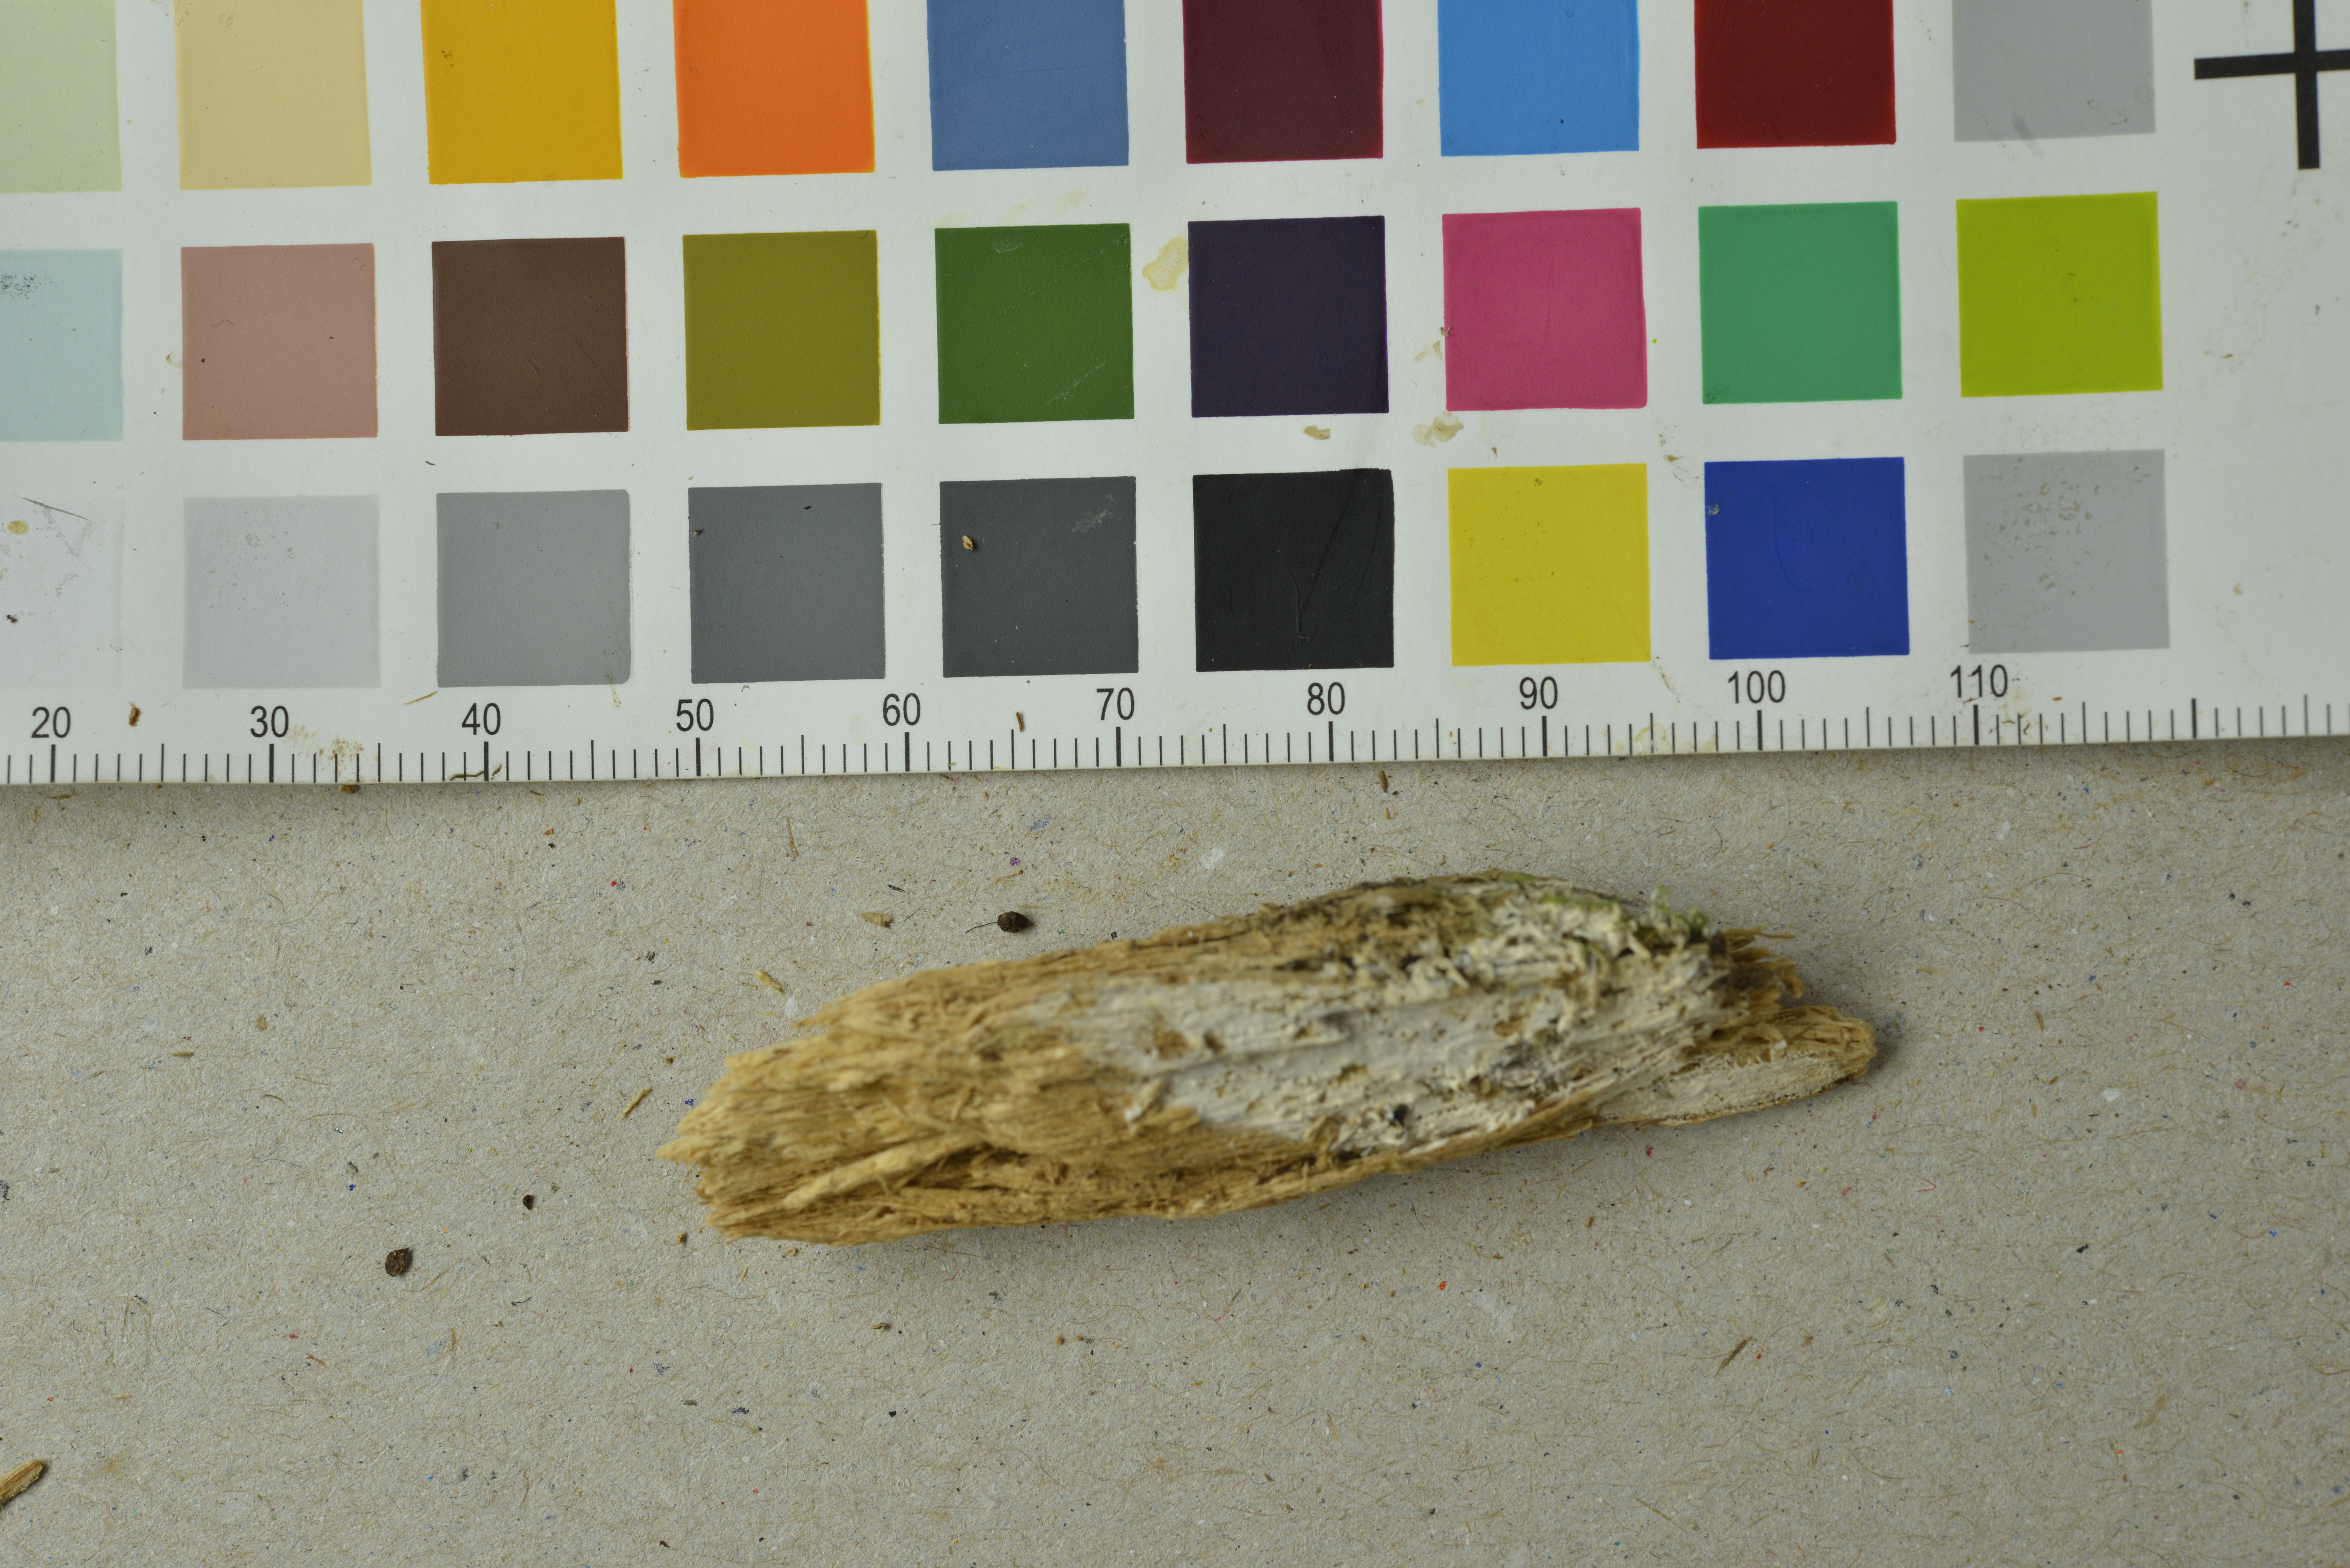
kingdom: Fungi
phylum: Basidiomycota
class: Agaricomycetes
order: Trechisporales
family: Sistotremataceae
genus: Trechispora
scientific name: Trechispora laevis
